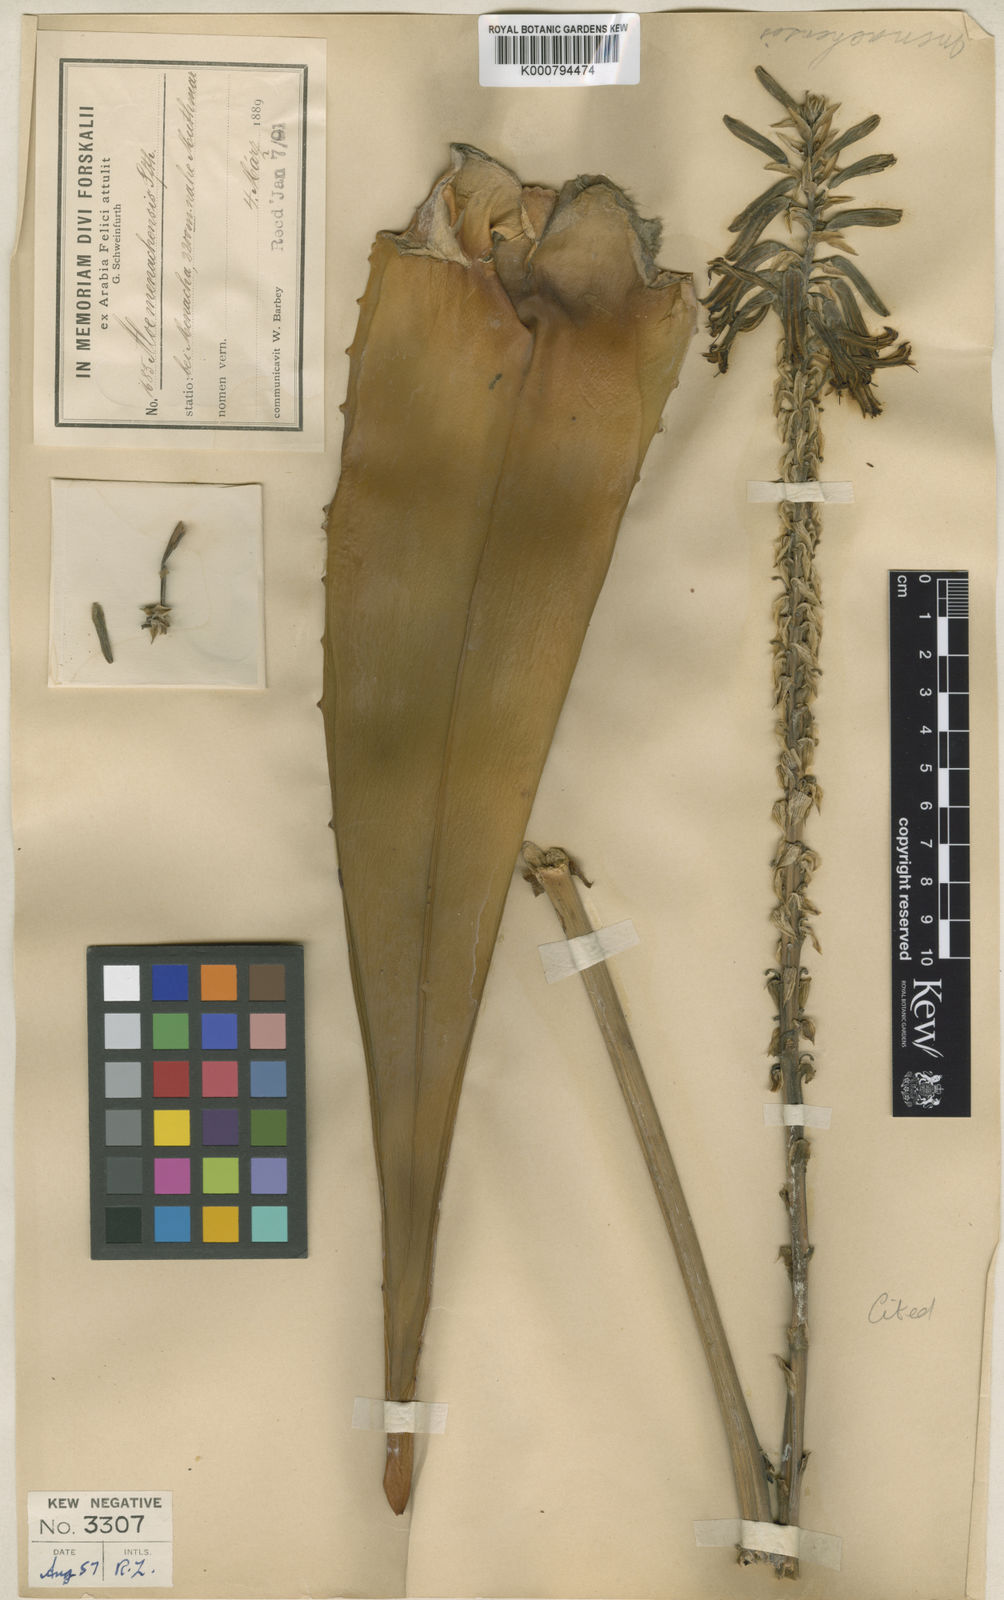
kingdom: Plantae
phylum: Tracheophyta
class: Liliopsida
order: Asparagales
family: Asphodelaceae
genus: Aloe
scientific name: Aloe menachensis
